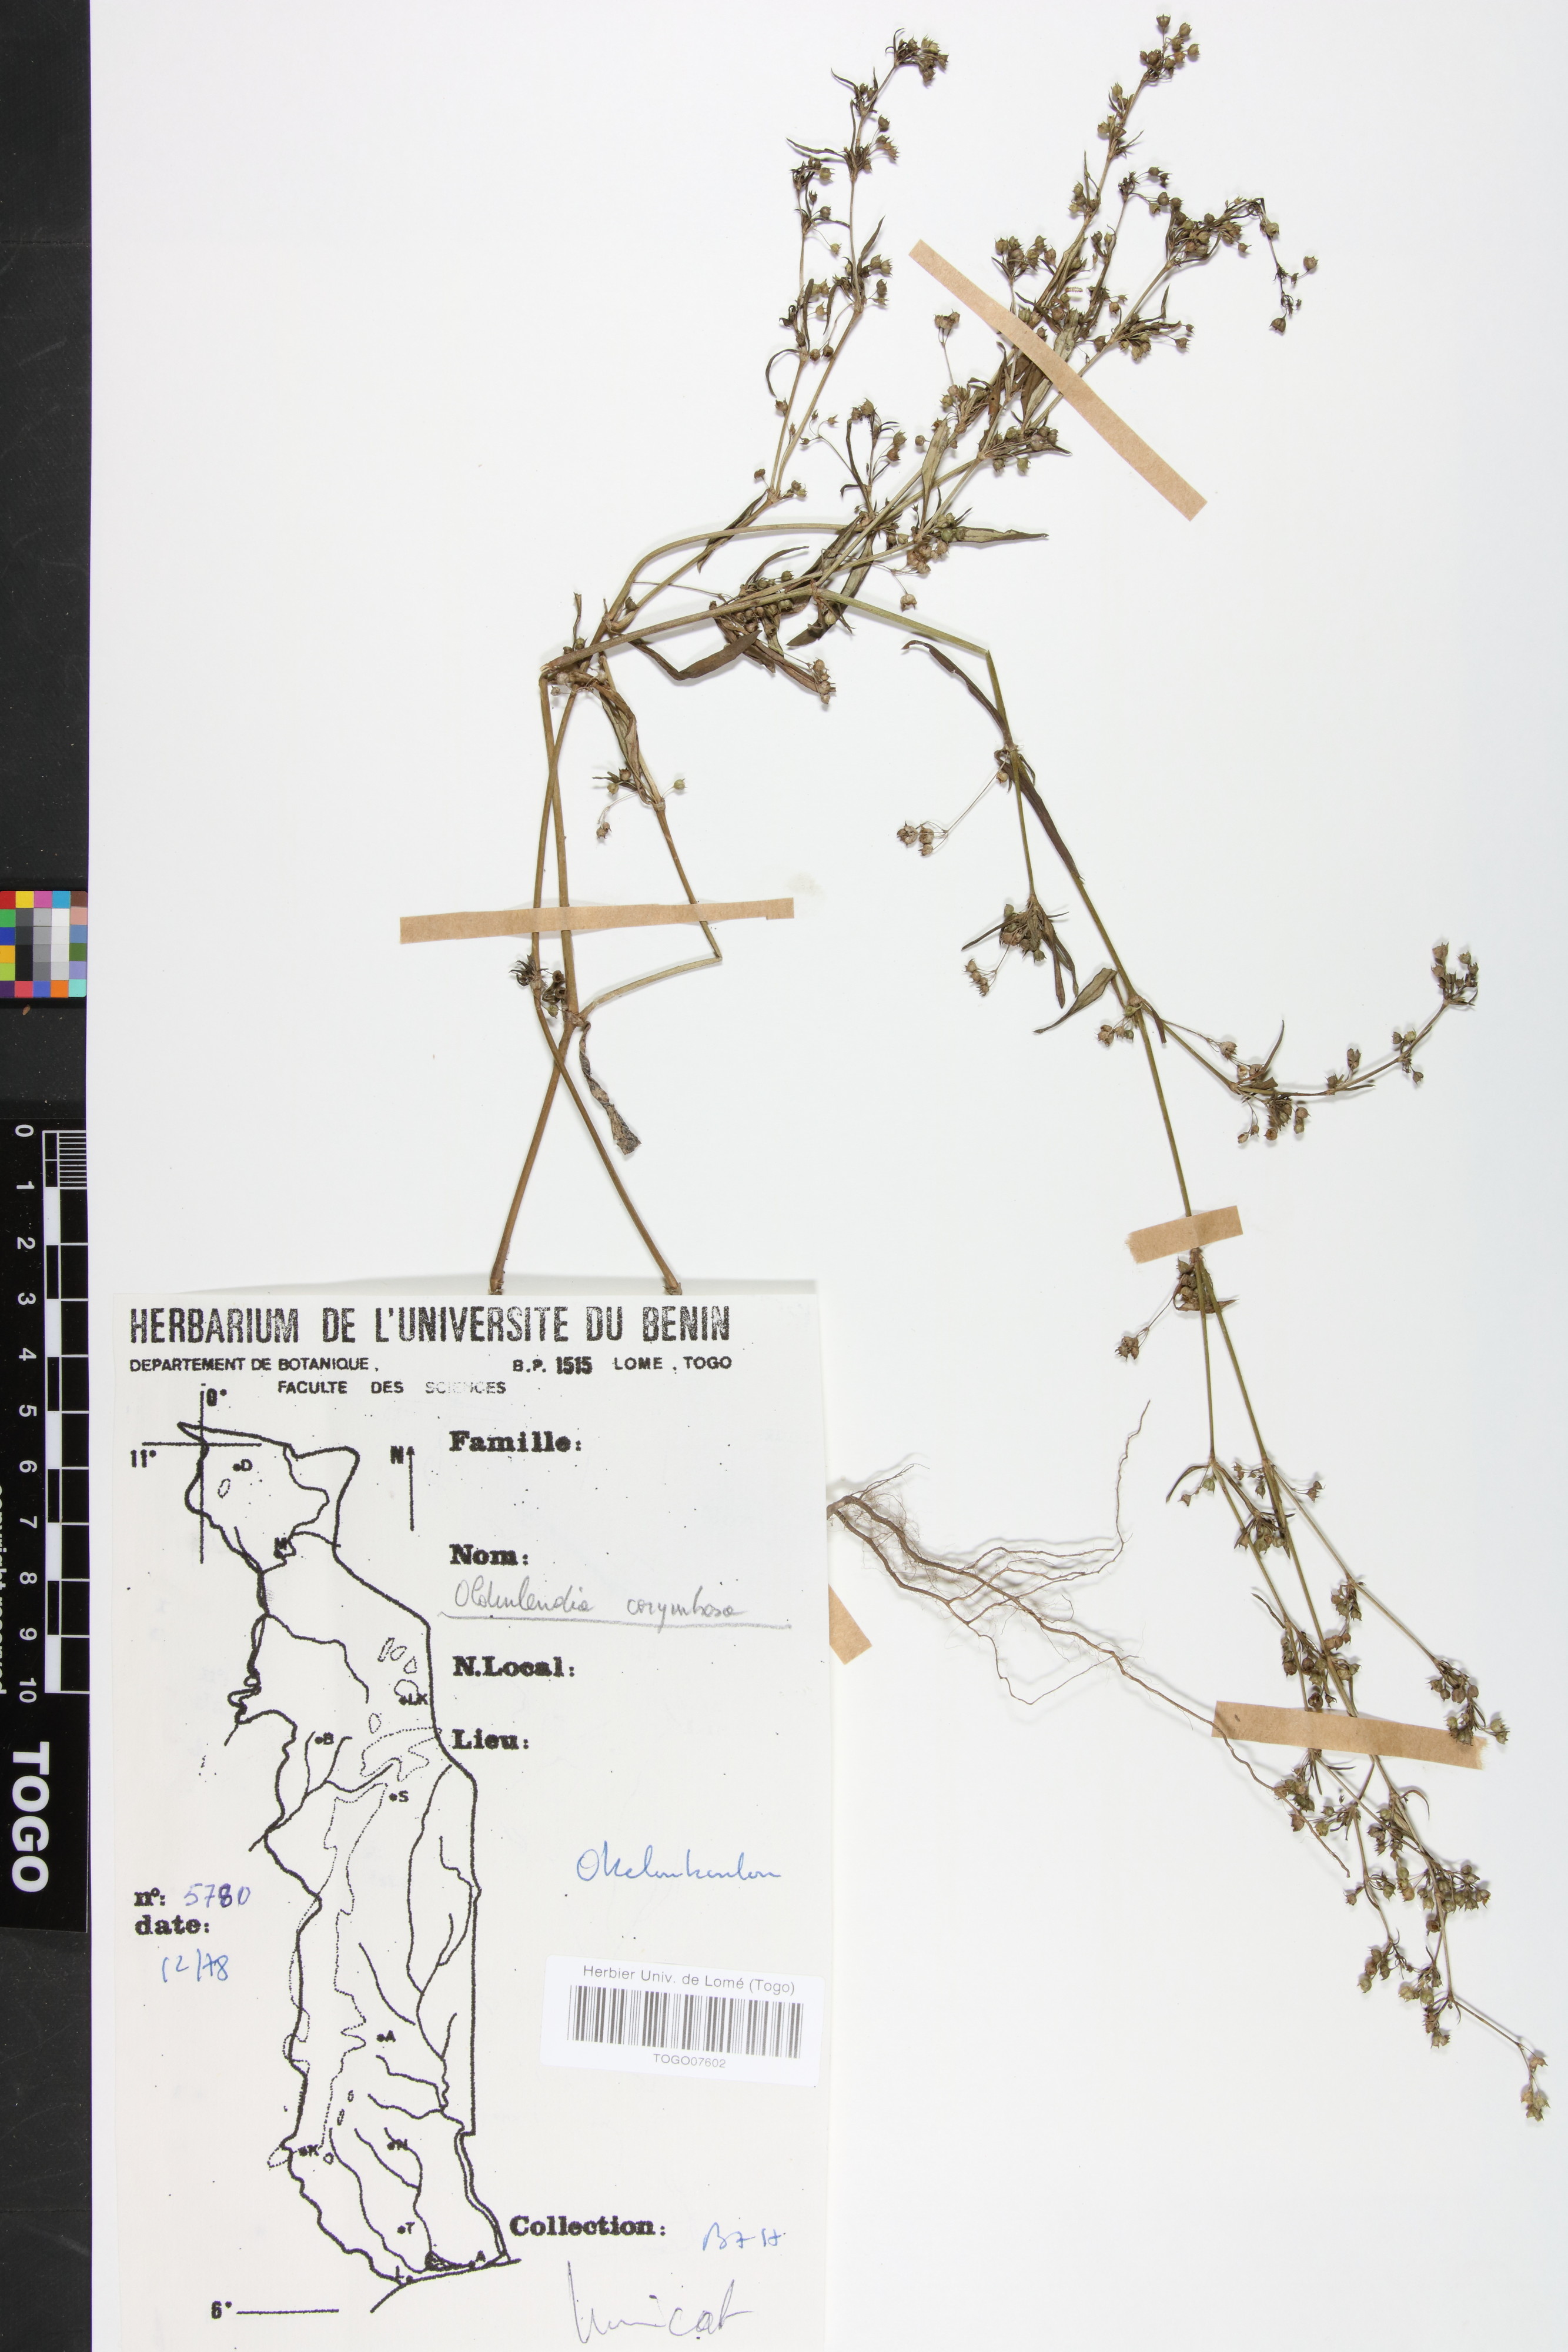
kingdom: Plantae
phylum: Tracheophyta
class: Magnoliopsida
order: Gentianales
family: Rubiaceae
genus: Oldenlandia
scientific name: Oldenlandia corymbosa
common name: Flat-top mille graines
